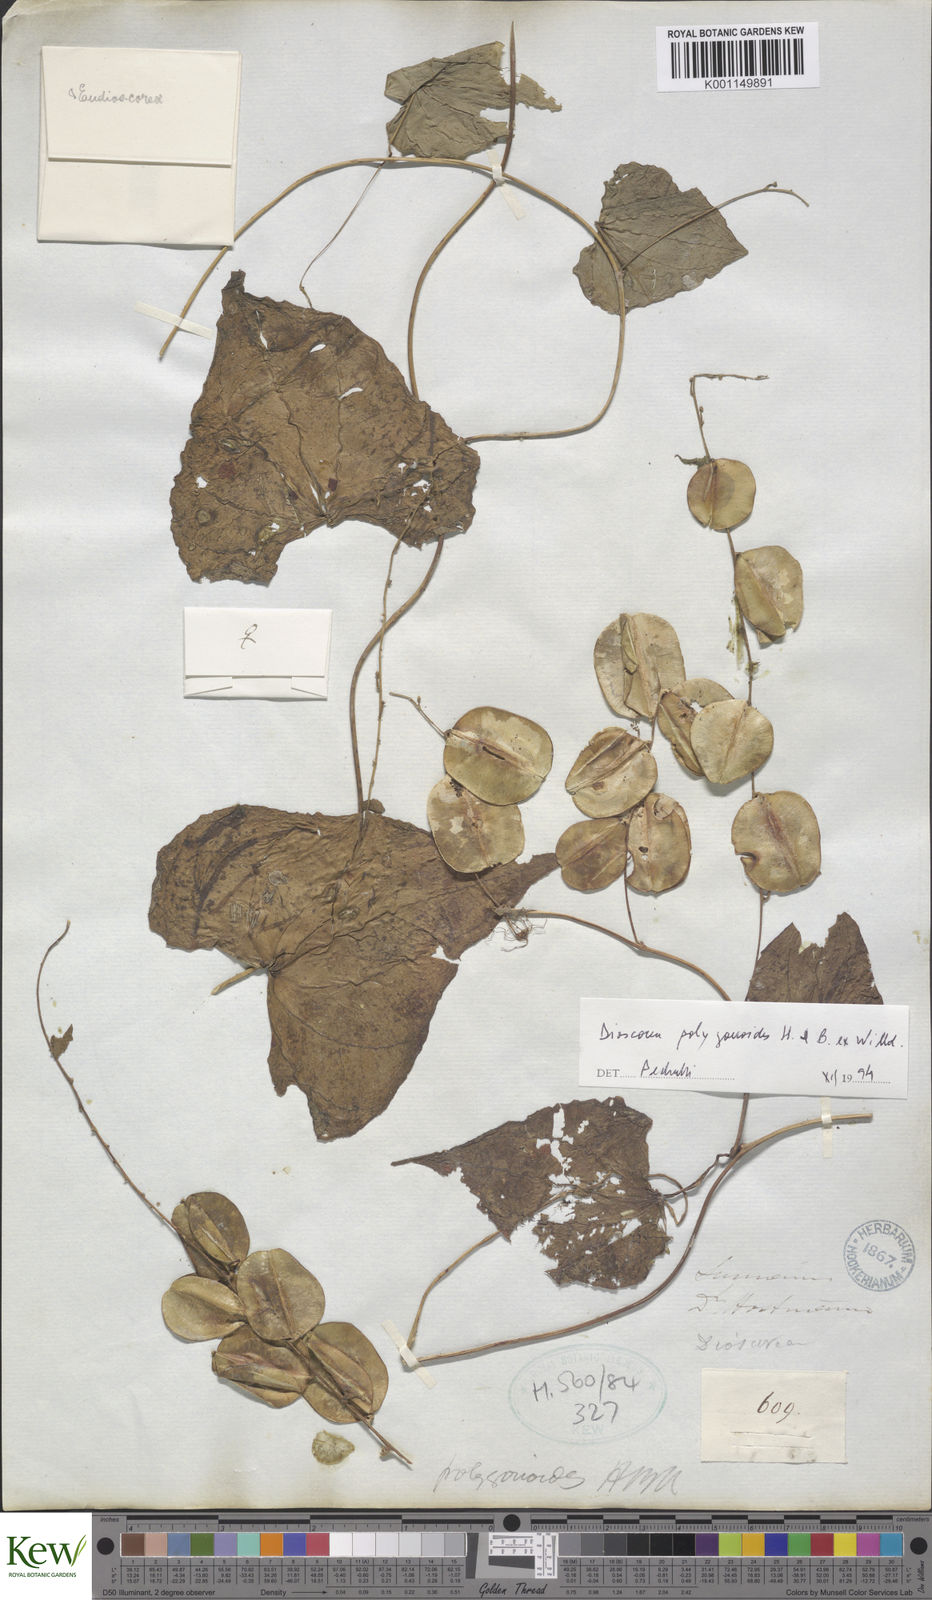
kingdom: Plantae
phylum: Tracheophyta
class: Liliopsida
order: Dioscoreales
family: Dioscoreaceae
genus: Dioscorea
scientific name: Dioscorea polygonoides
